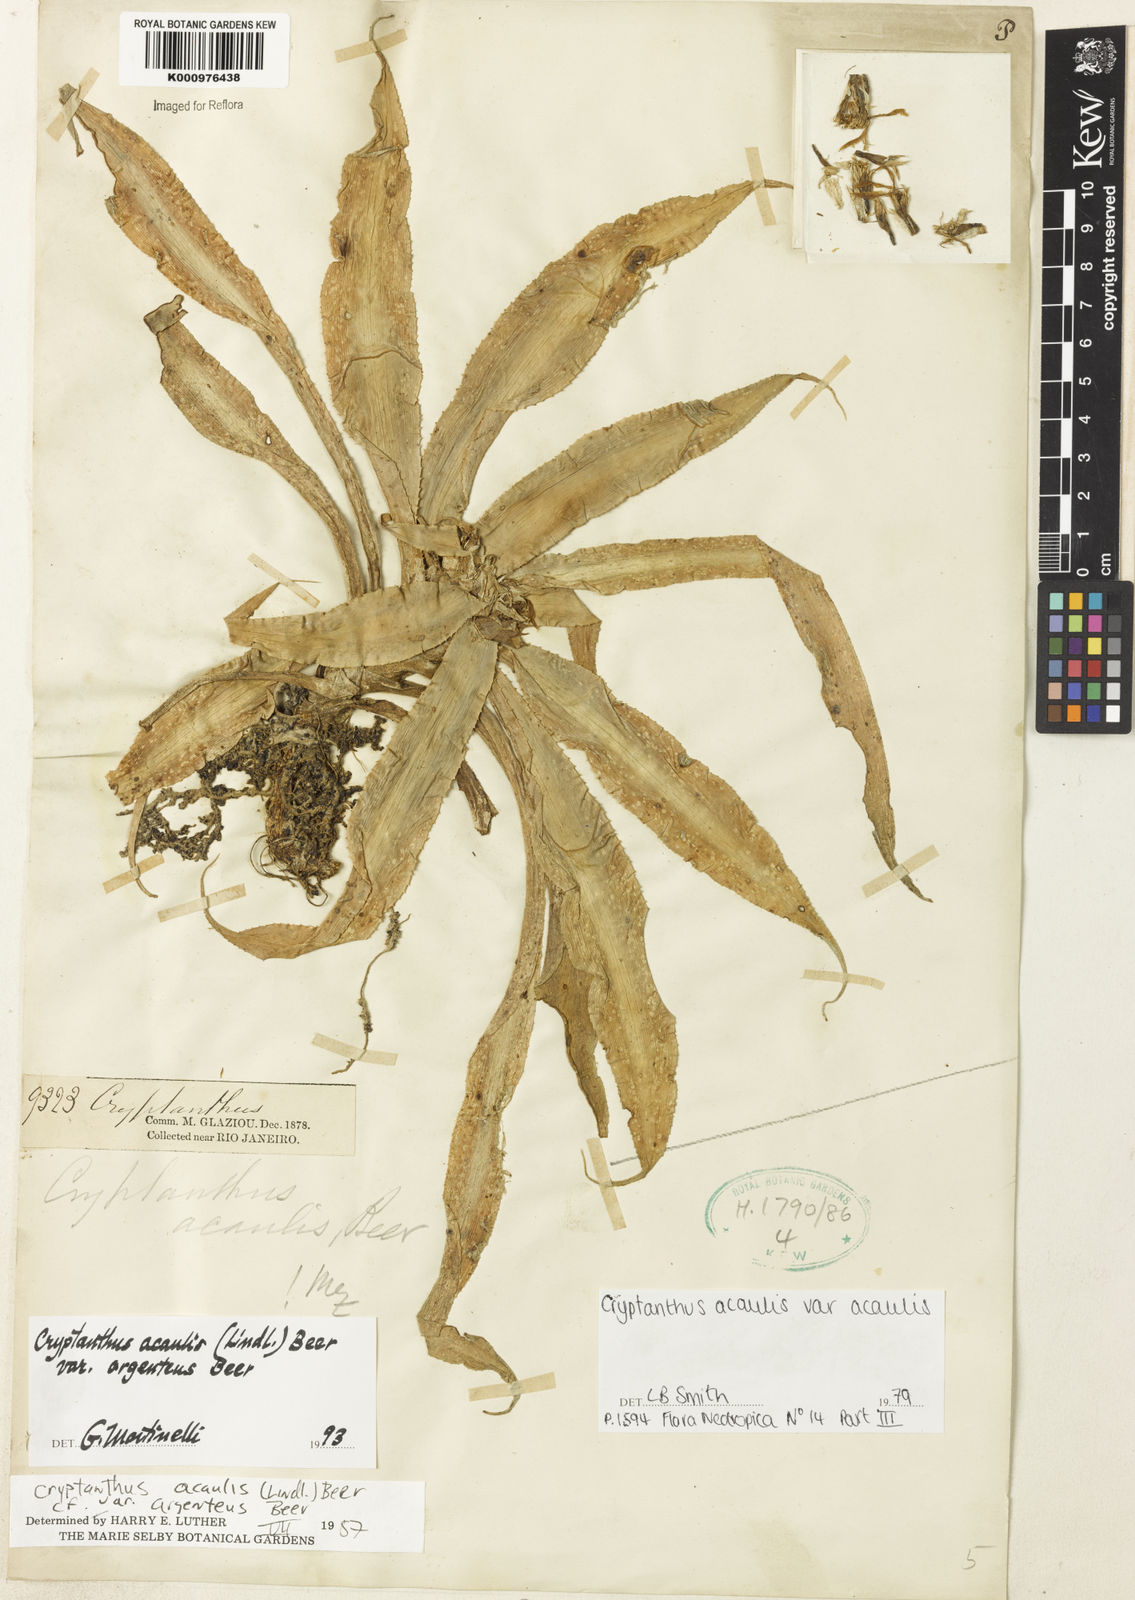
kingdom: Plantae
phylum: Tracheophyta
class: Liliopsida
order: Poales
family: Bromeliaceae
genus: Cryptanthus
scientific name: Cryptanthus acaulis
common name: Starfishplant
